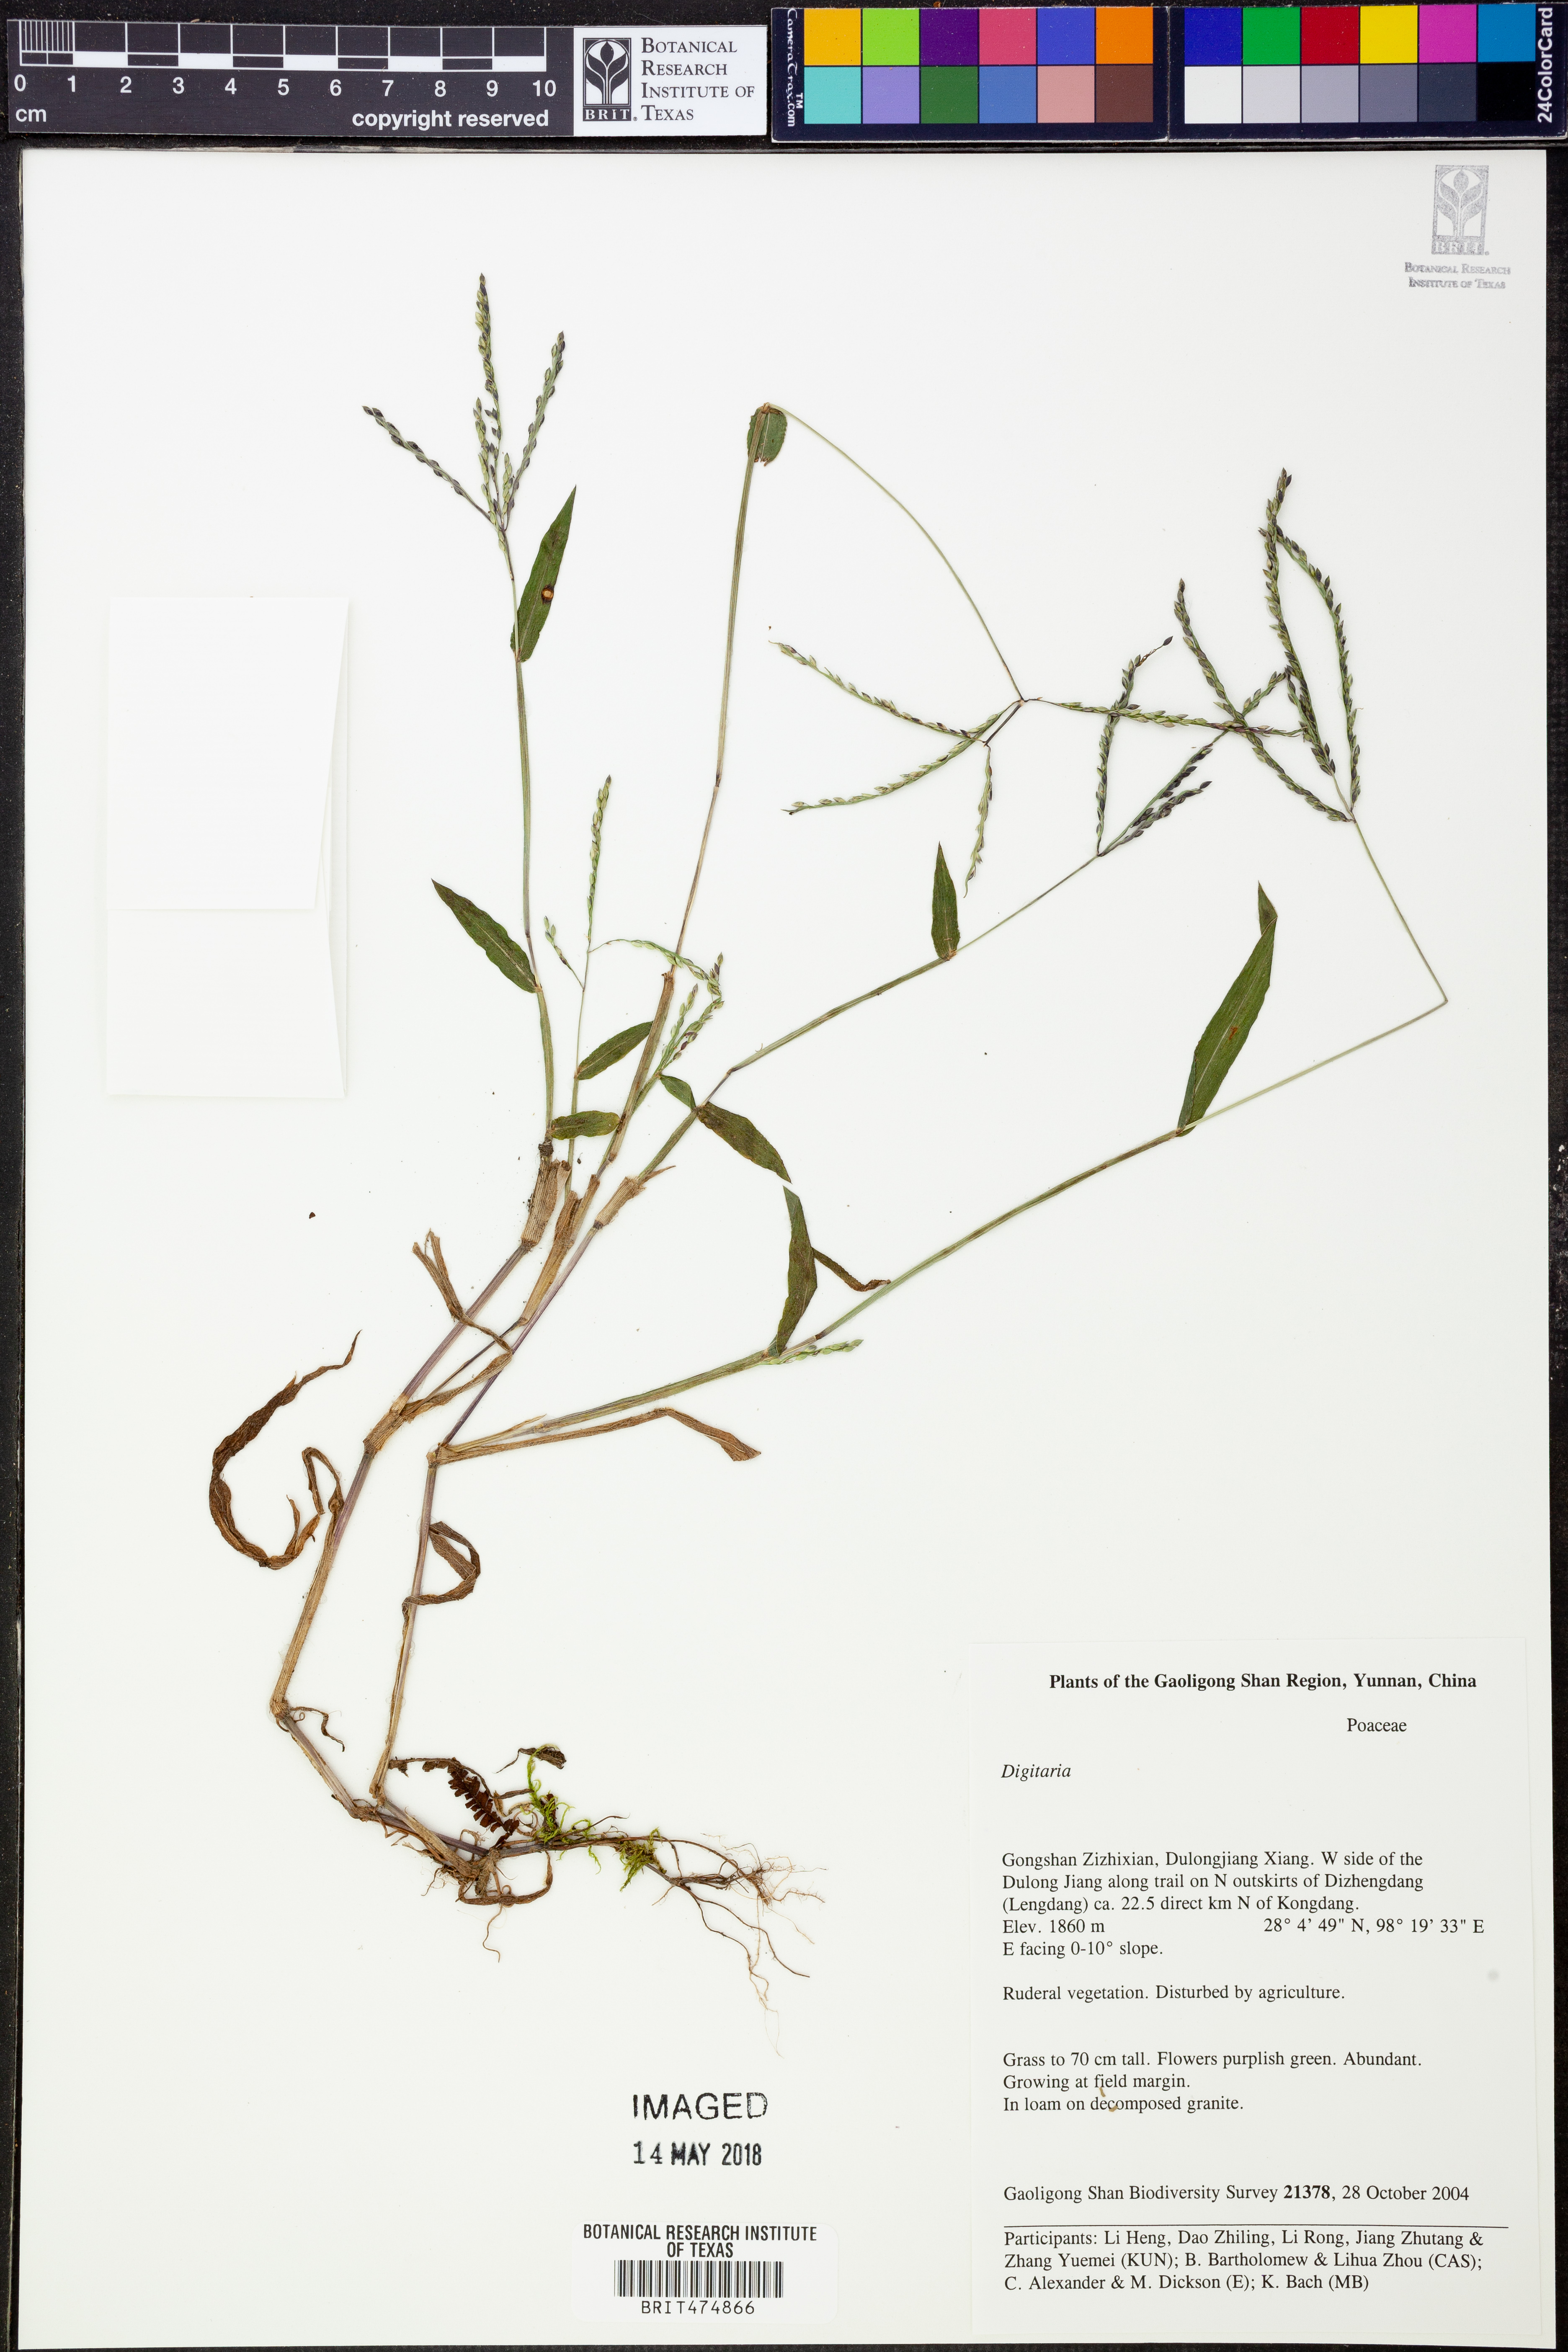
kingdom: Plantae
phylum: Tracheophyta
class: Liliopsida
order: Poales
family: Poaceae
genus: Digitaria
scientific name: Digitaria
